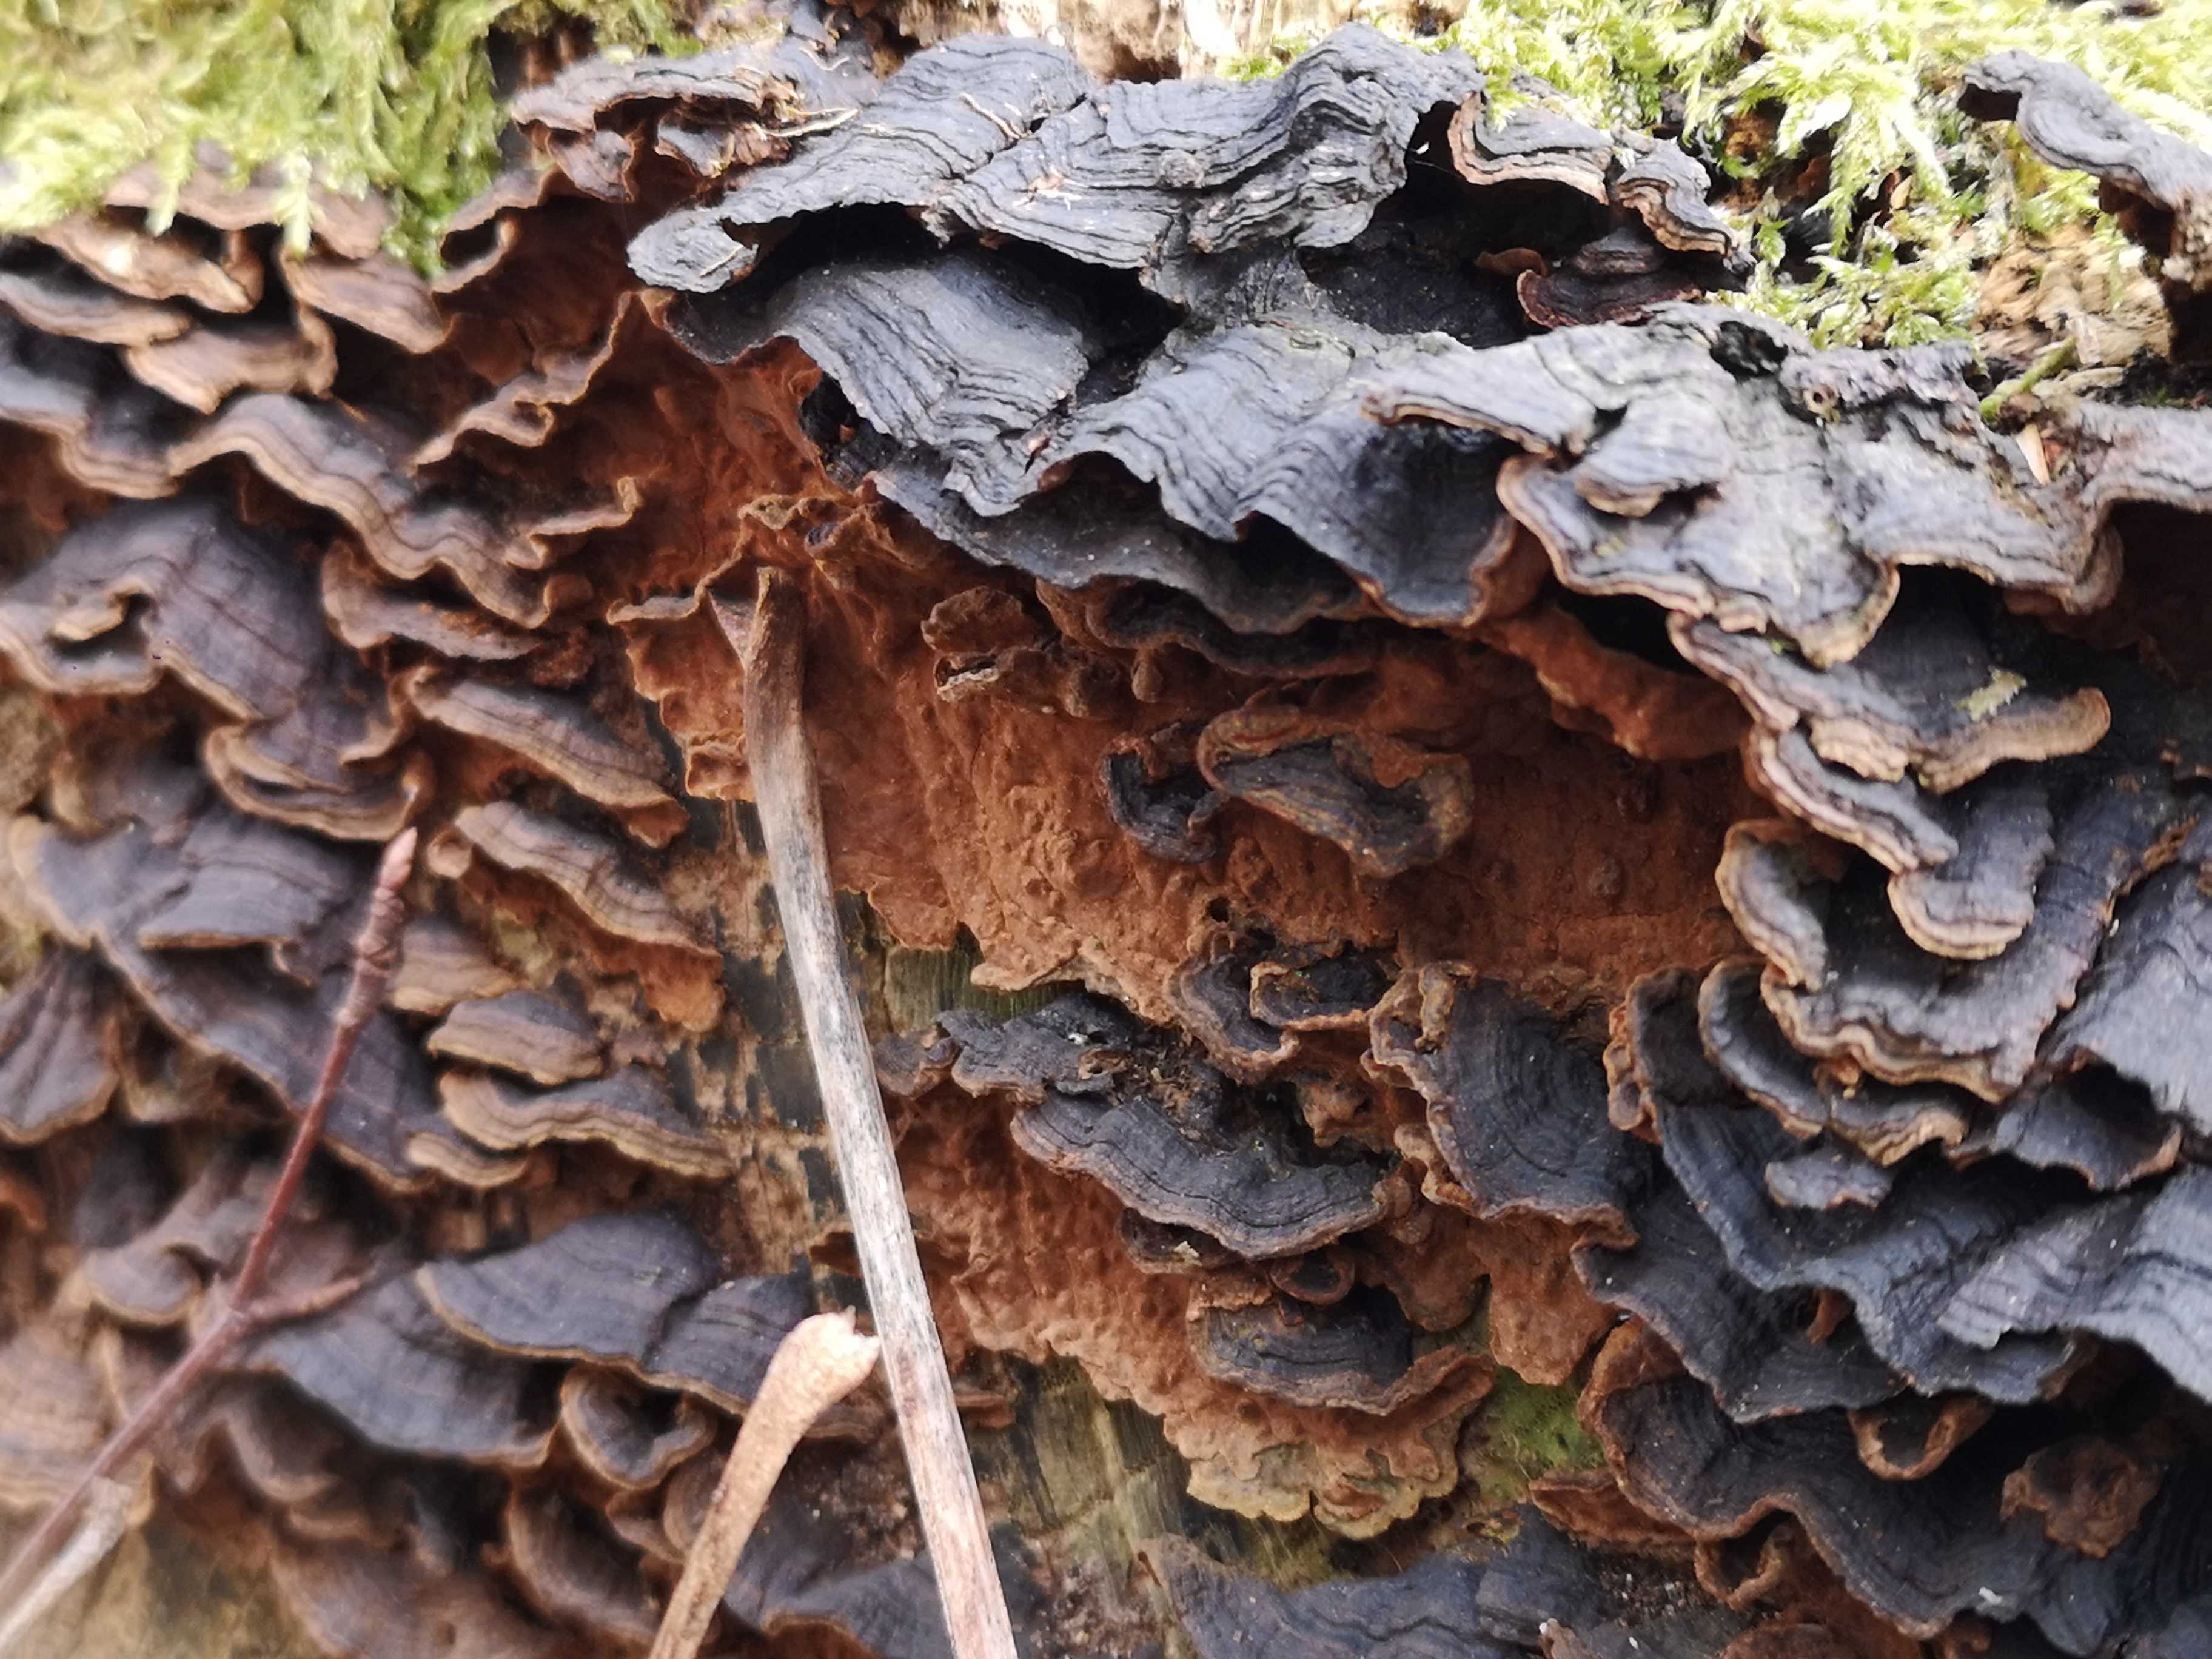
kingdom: Fungi
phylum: Basidiomycota
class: Agaricomycetes
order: Hymenochaetales
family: Hymenochaetaceae
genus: Hymenochaete
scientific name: Hymenochaete rubiginosa
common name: stiv ruslædersvamp
